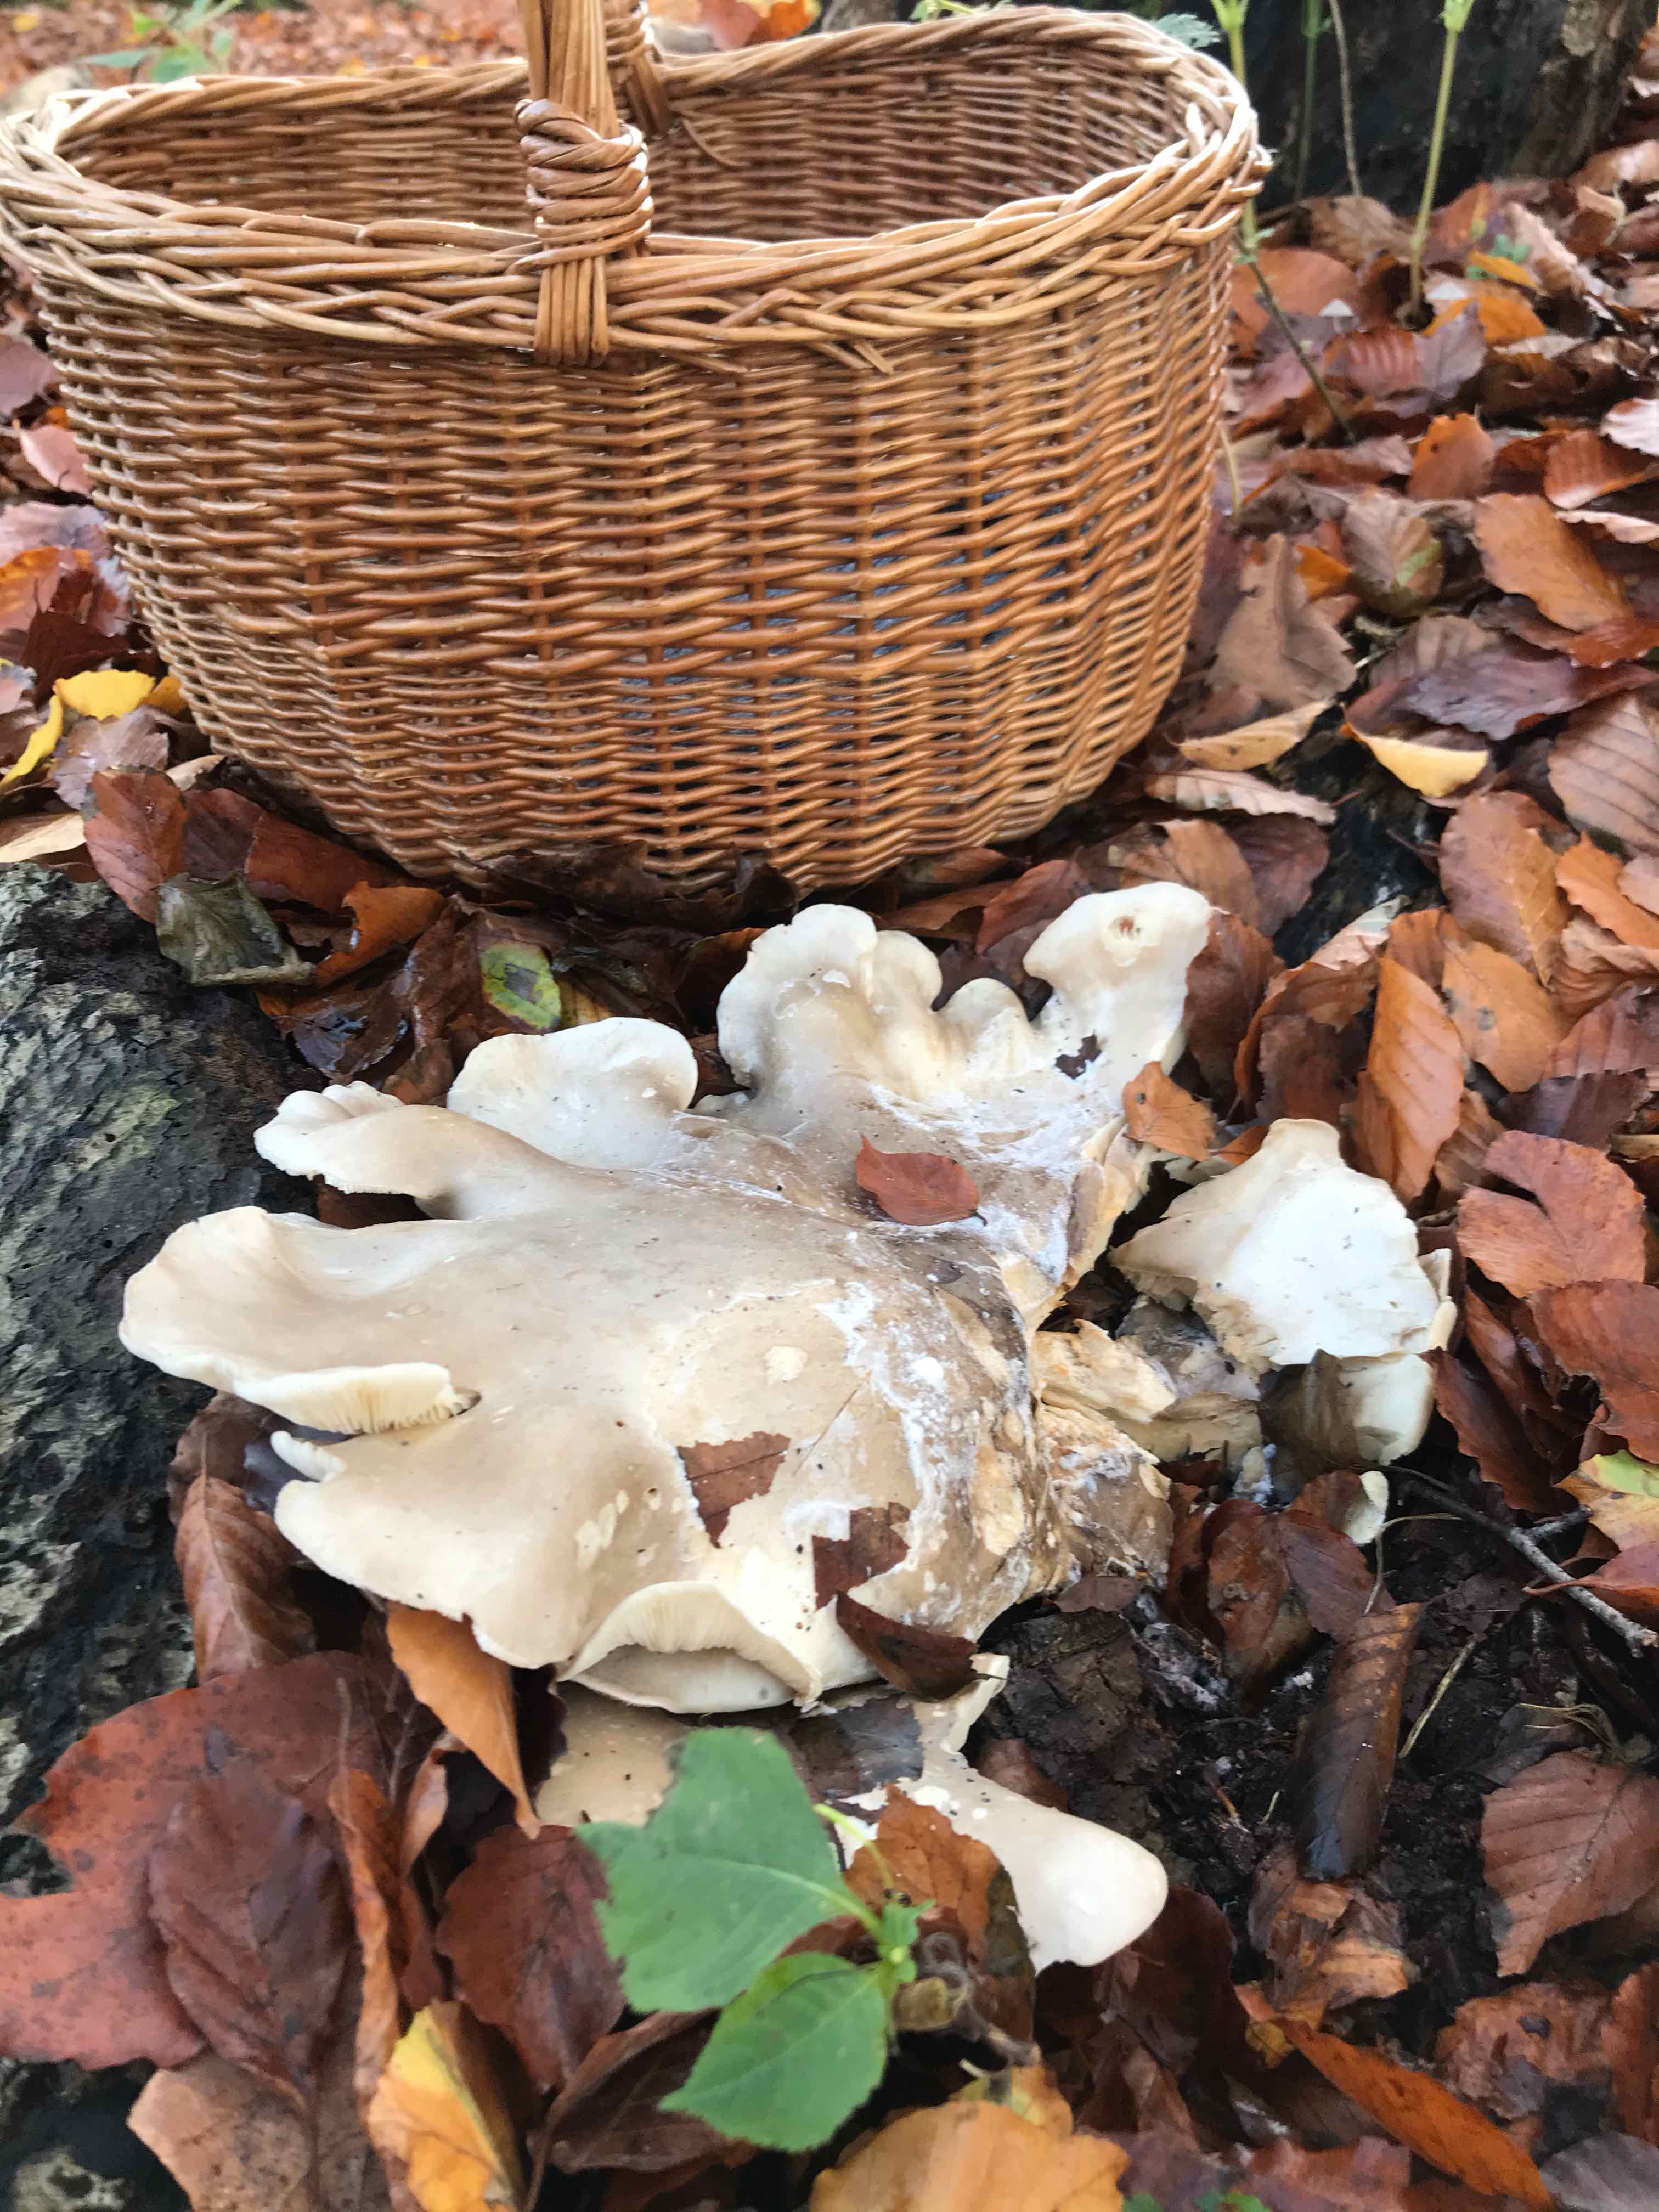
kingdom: Fungi
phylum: Basidiomycota
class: Agaricomycetes
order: Agaricales
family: Tricholomataceae
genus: Clitocybe
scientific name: Clitocybe nebularis
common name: tåge-tragthat
